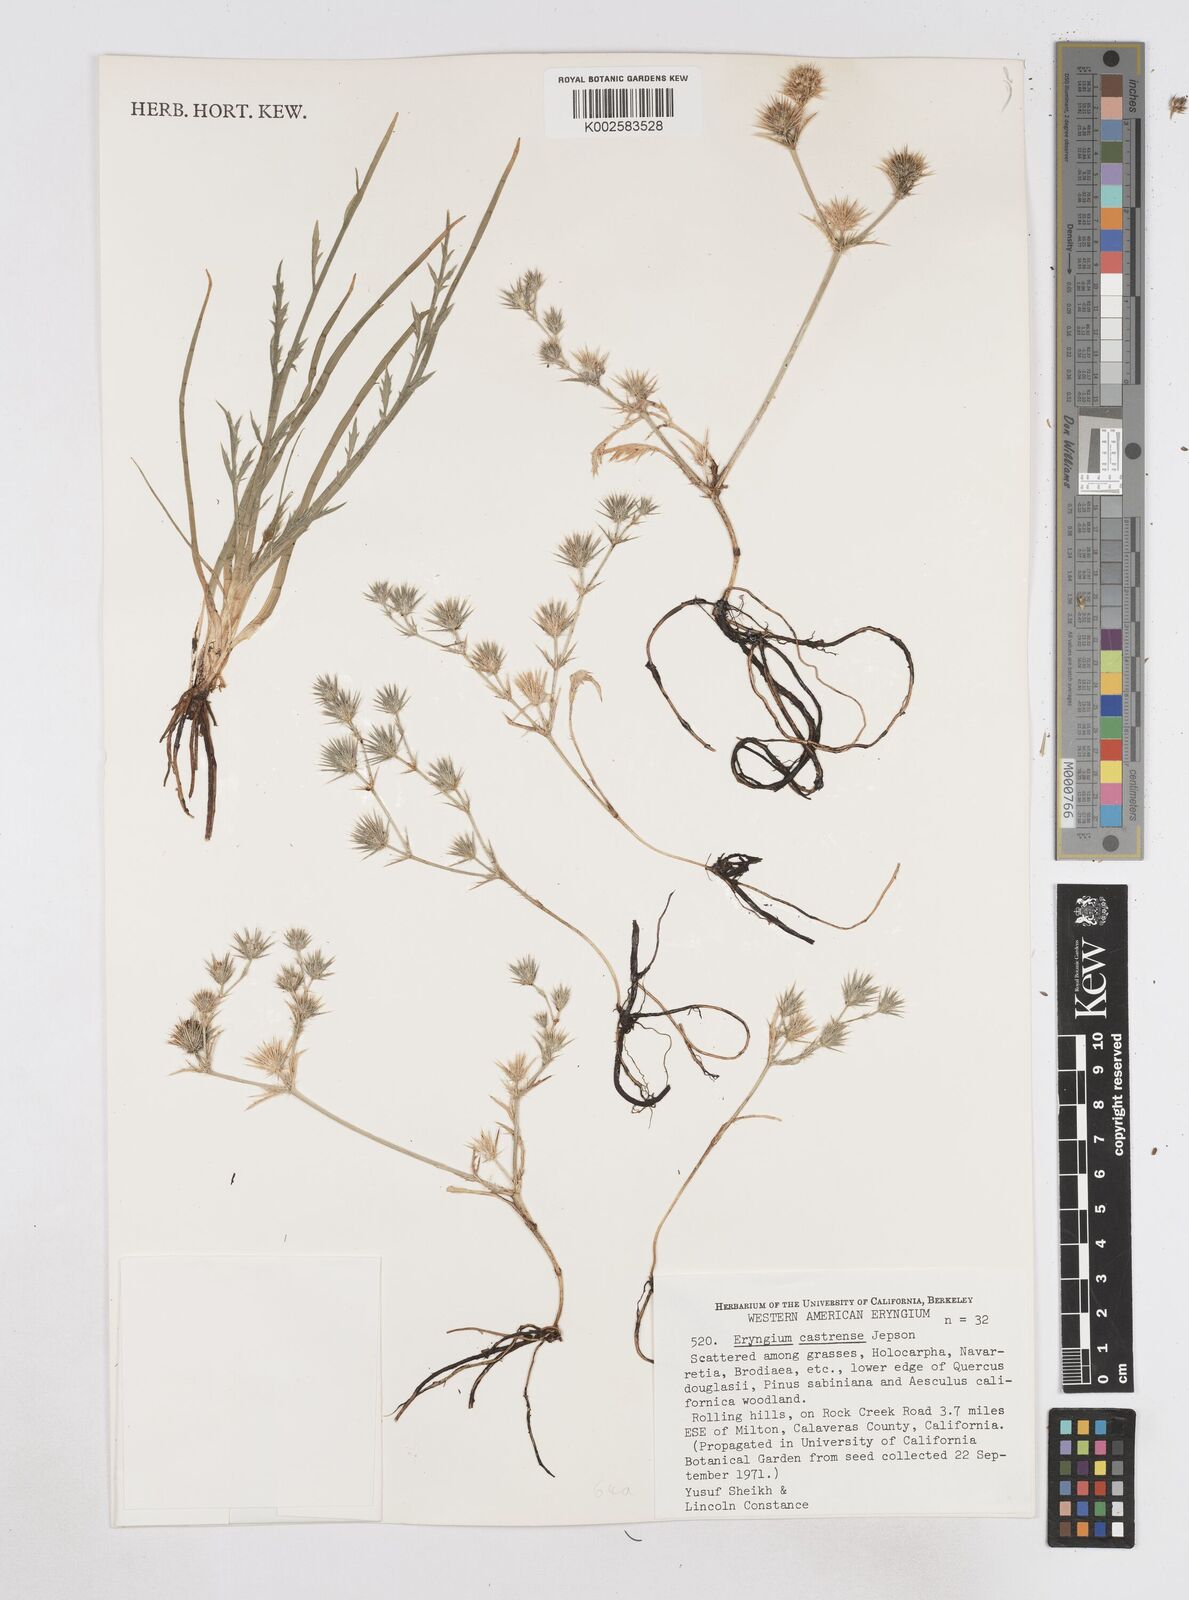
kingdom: Plantae
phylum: Tracheophyta
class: Magnoliopsida
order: Apiales
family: Apiaceae
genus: Eryngium
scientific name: Eryngium castrense
